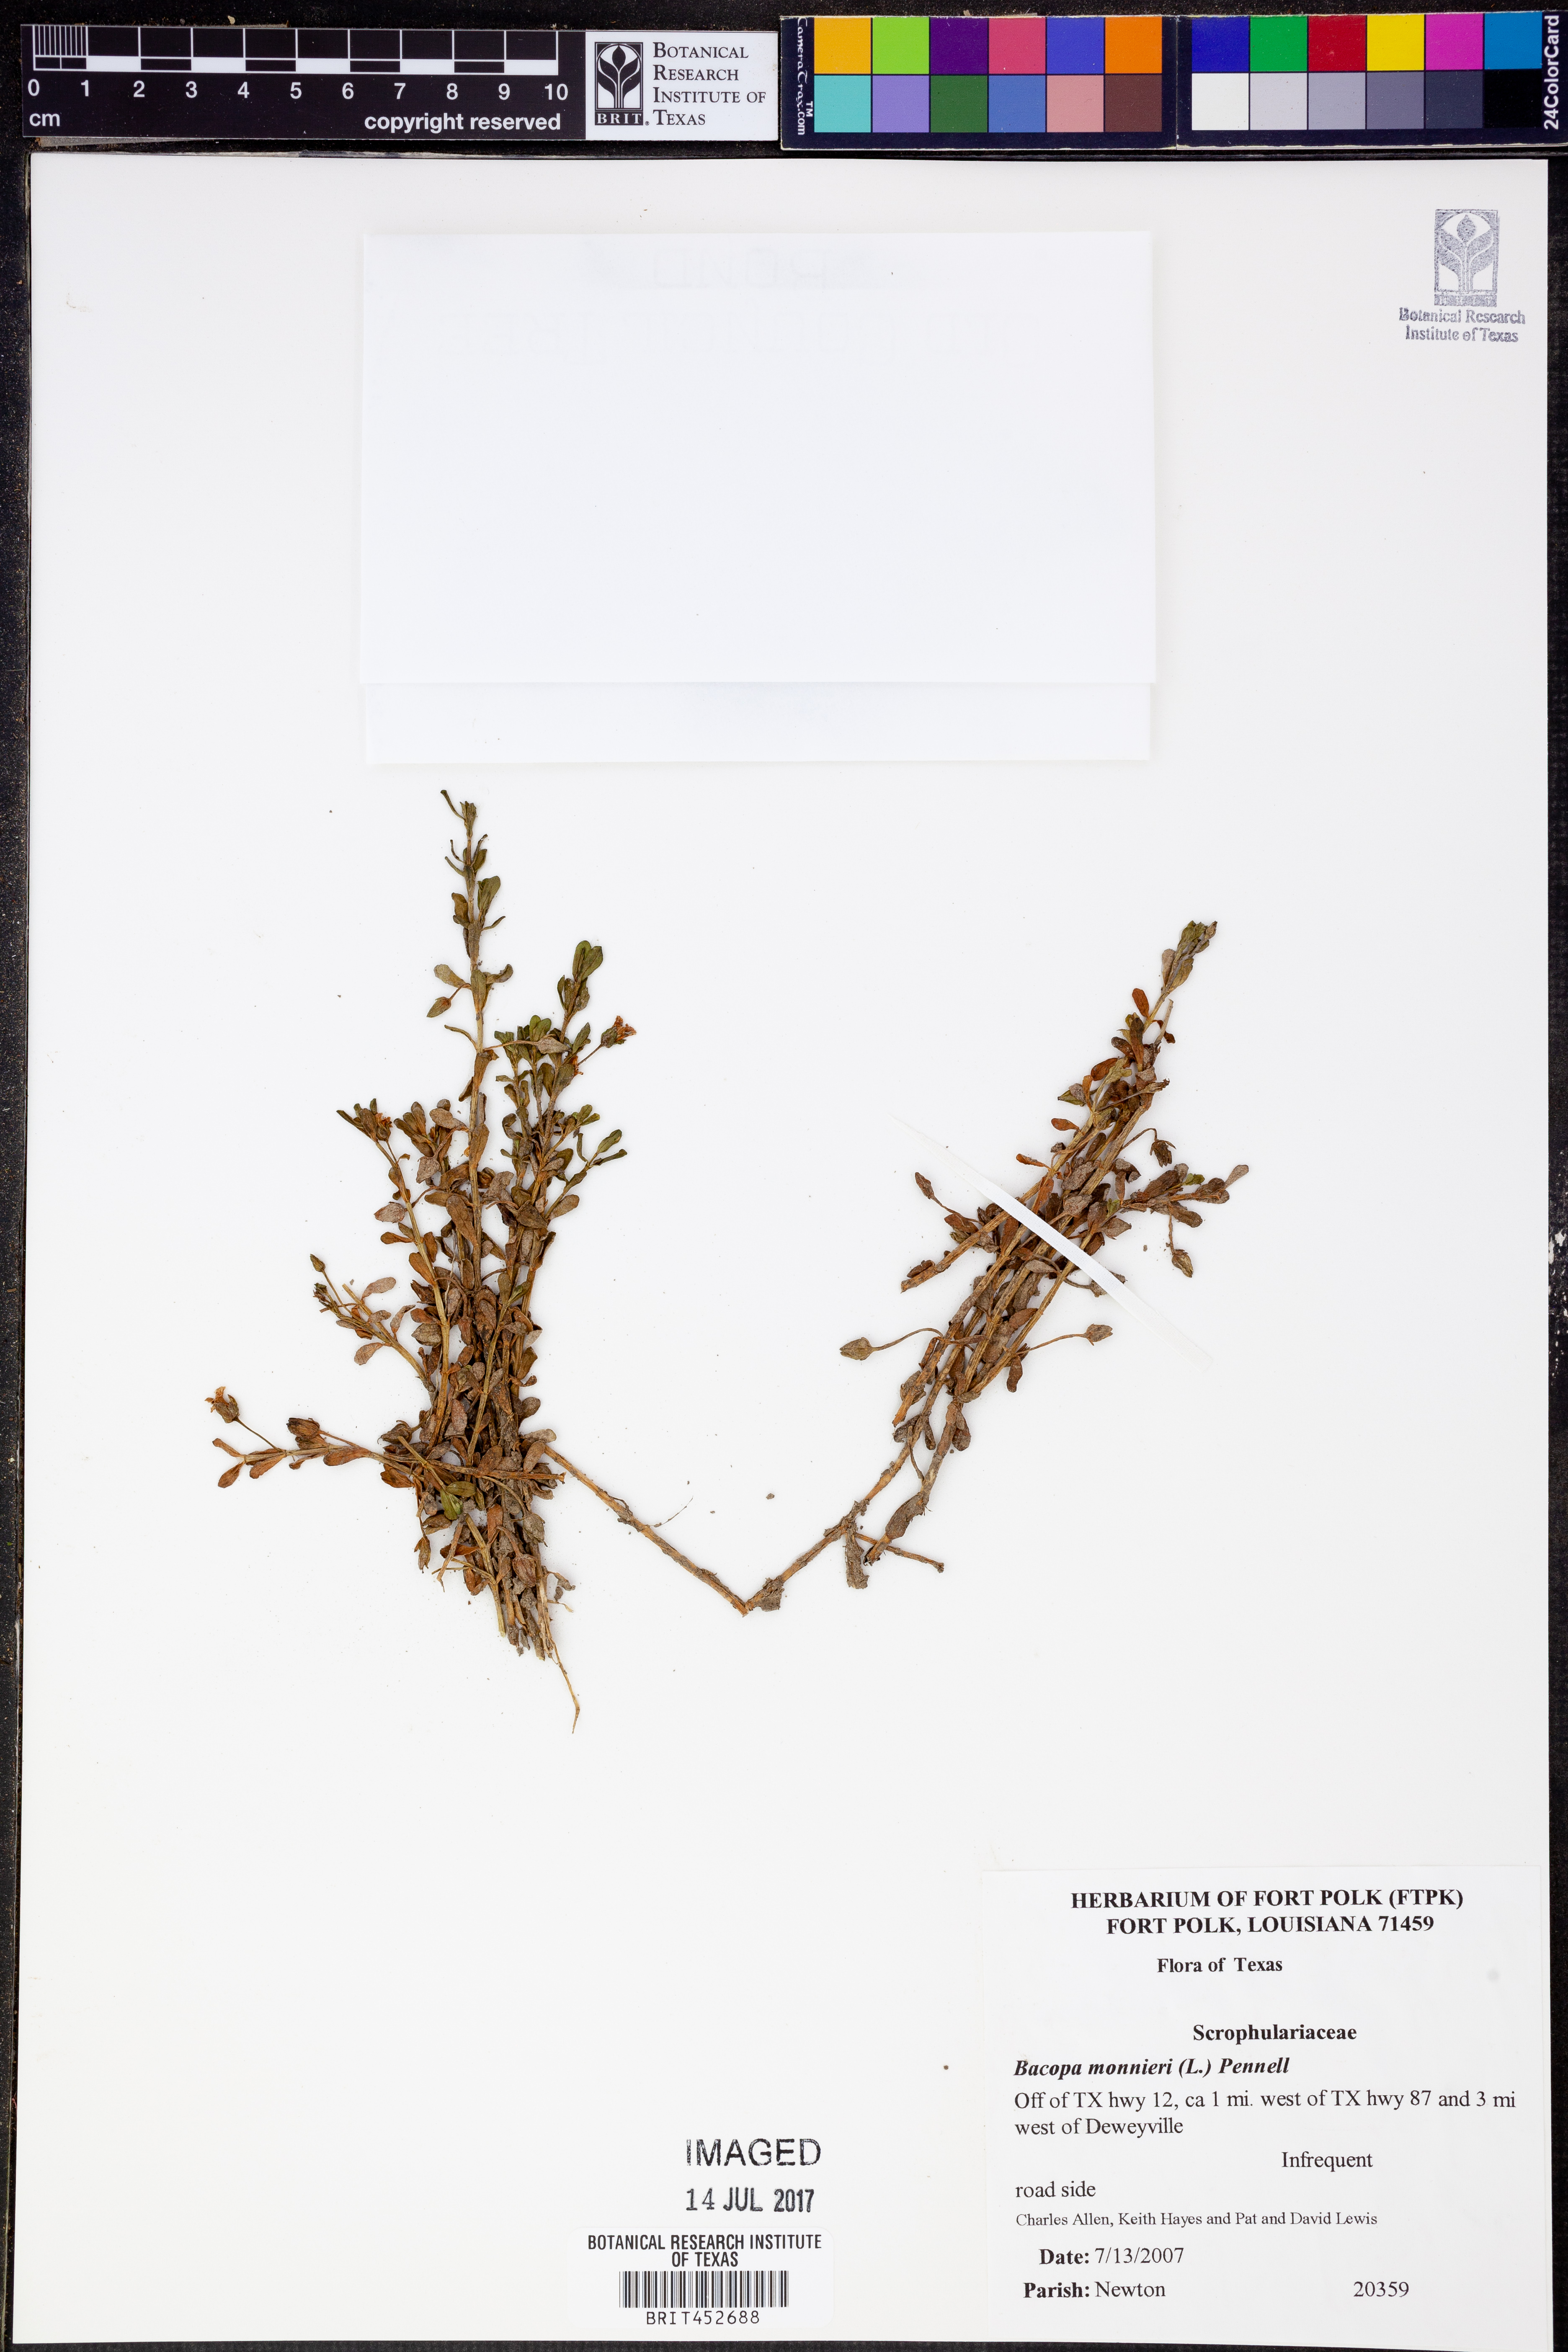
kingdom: Plantae
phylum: Tracheophyta
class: Magnoliopsida
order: Lamiales
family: Plantaginaceae
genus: Bacopa
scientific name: Bacopa monnieri
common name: Indian-pennywort
